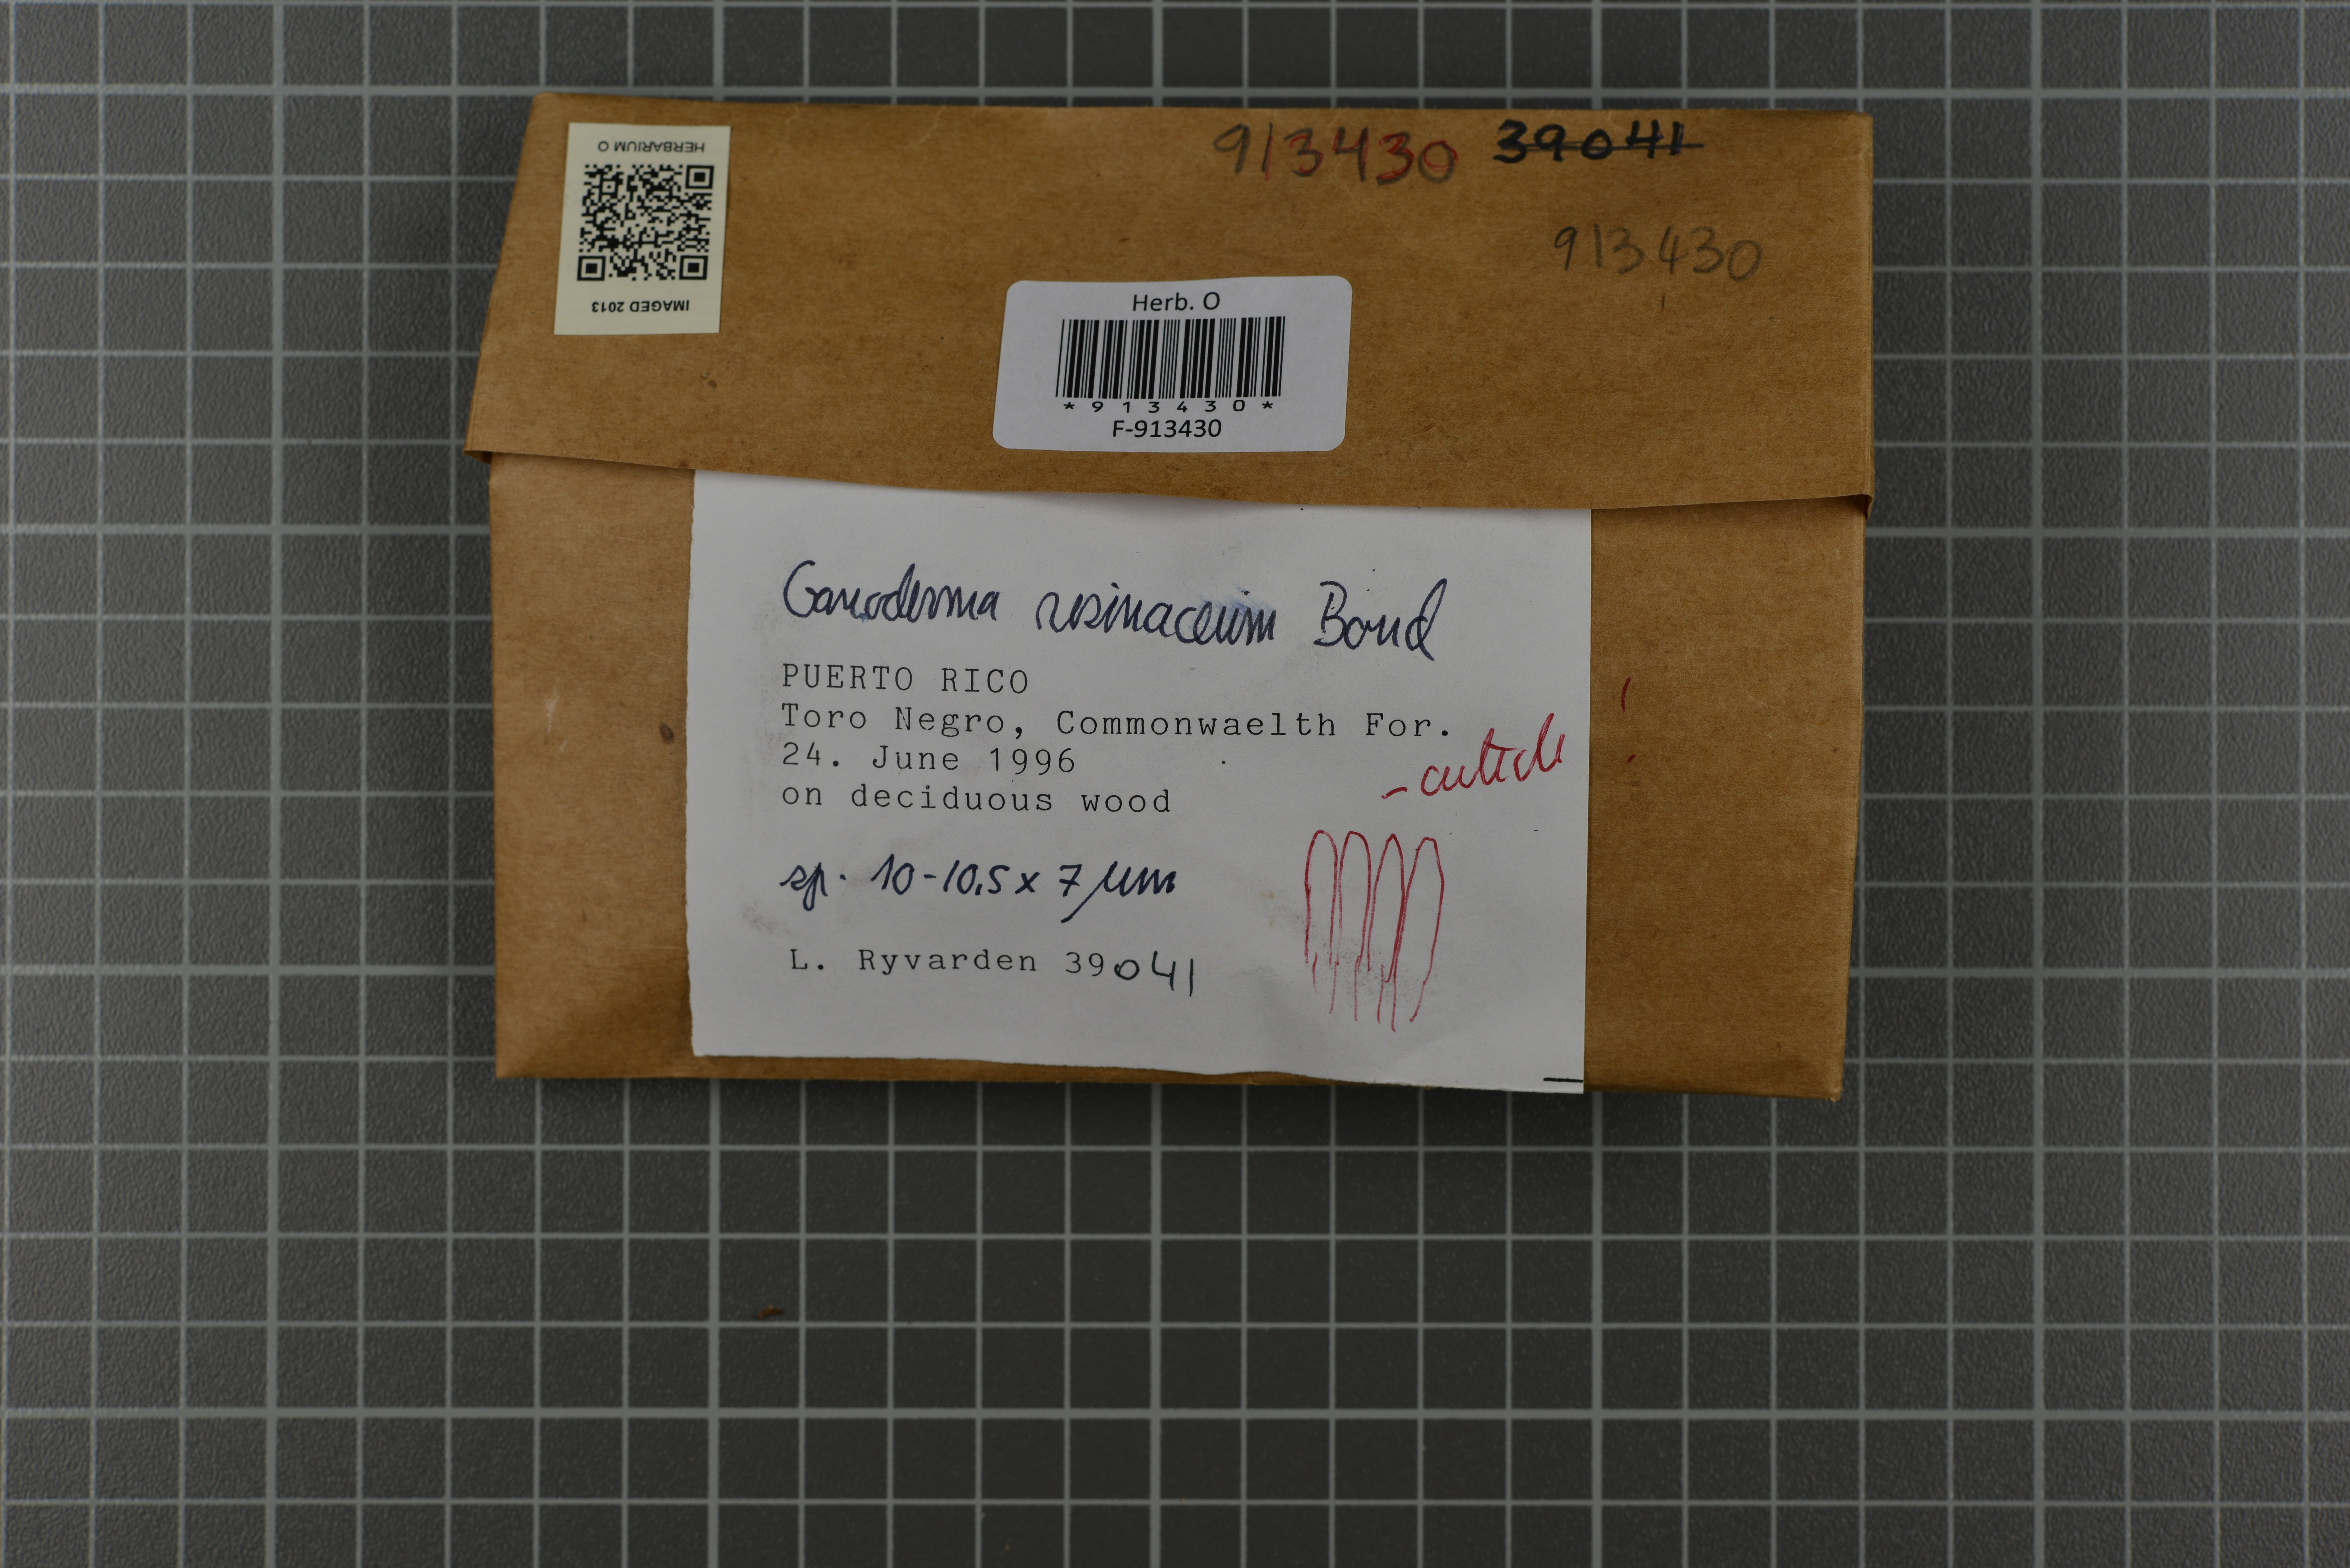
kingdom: Fungi
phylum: Basidiomycota
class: Agaricomycetes
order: Polyporales
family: Polyporaceae
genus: Ganoderma
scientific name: Ganoderma resinaceum
